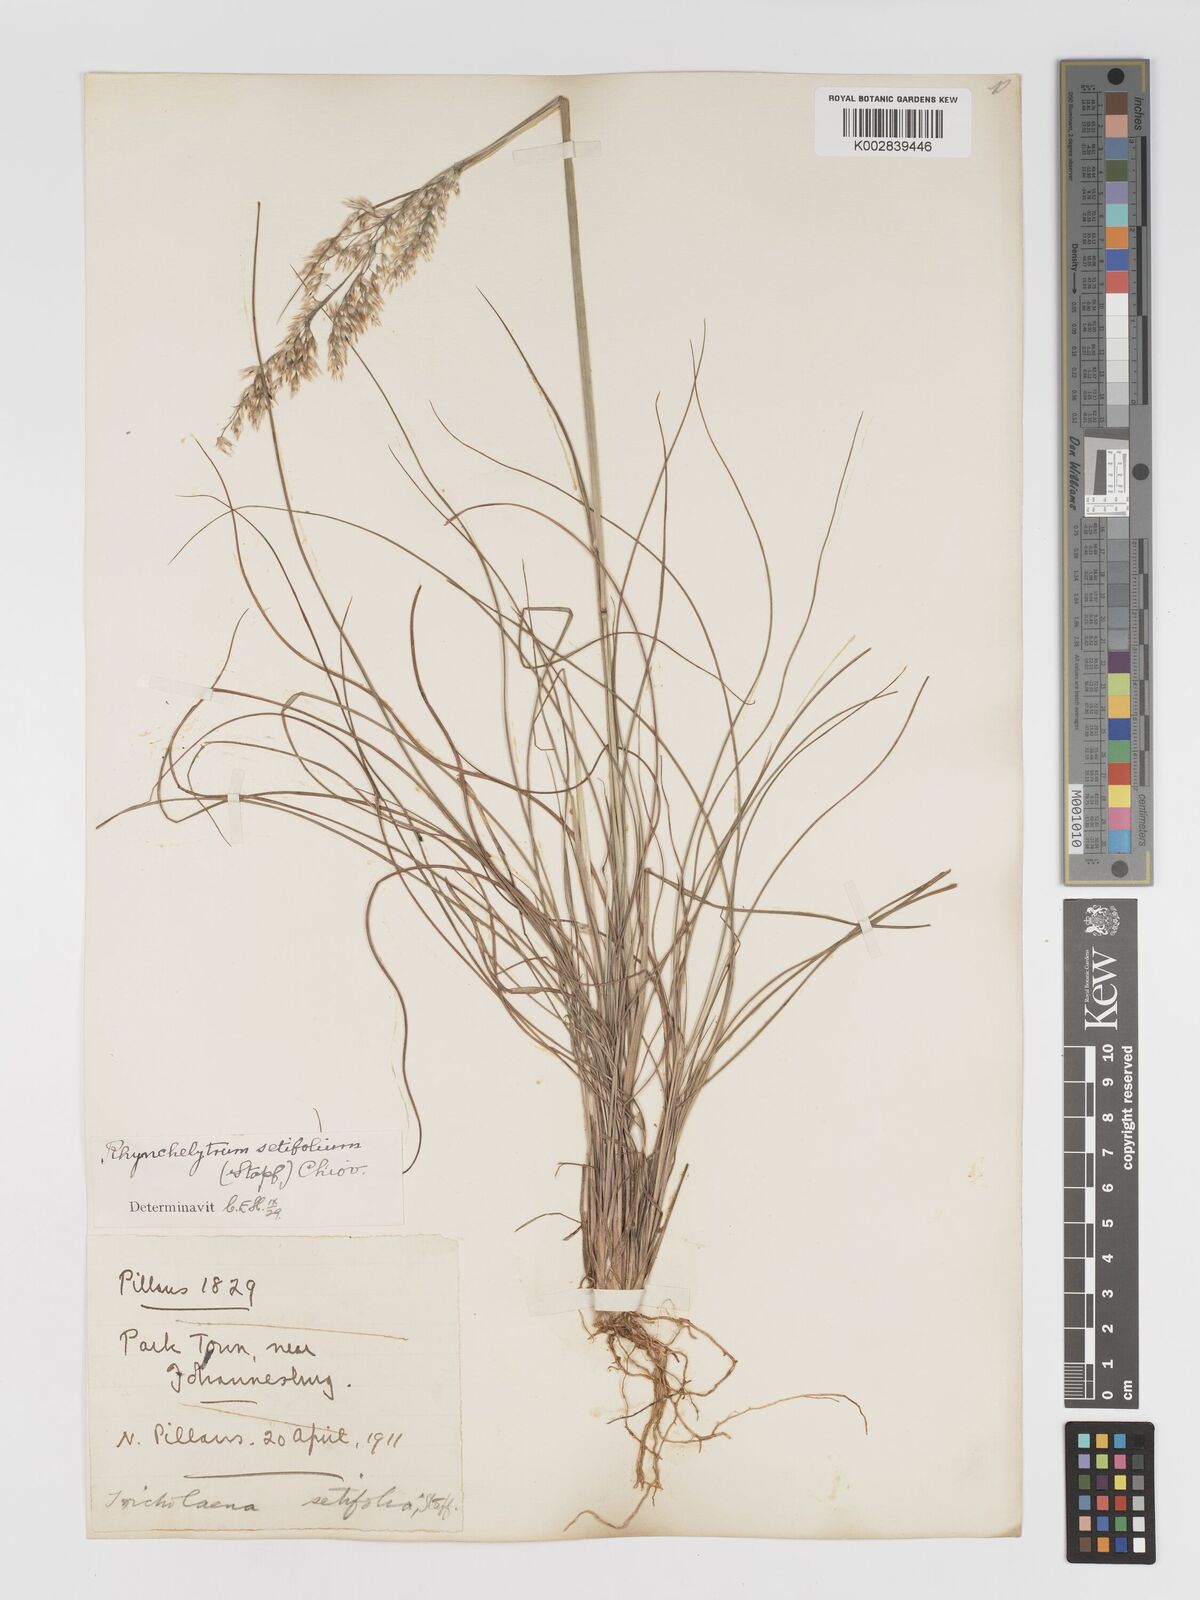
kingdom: Plantae
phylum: Tracheophyta
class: Liliopsida
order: Poales
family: Poaceae
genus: Melinis
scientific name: Melinis nerviglumis
